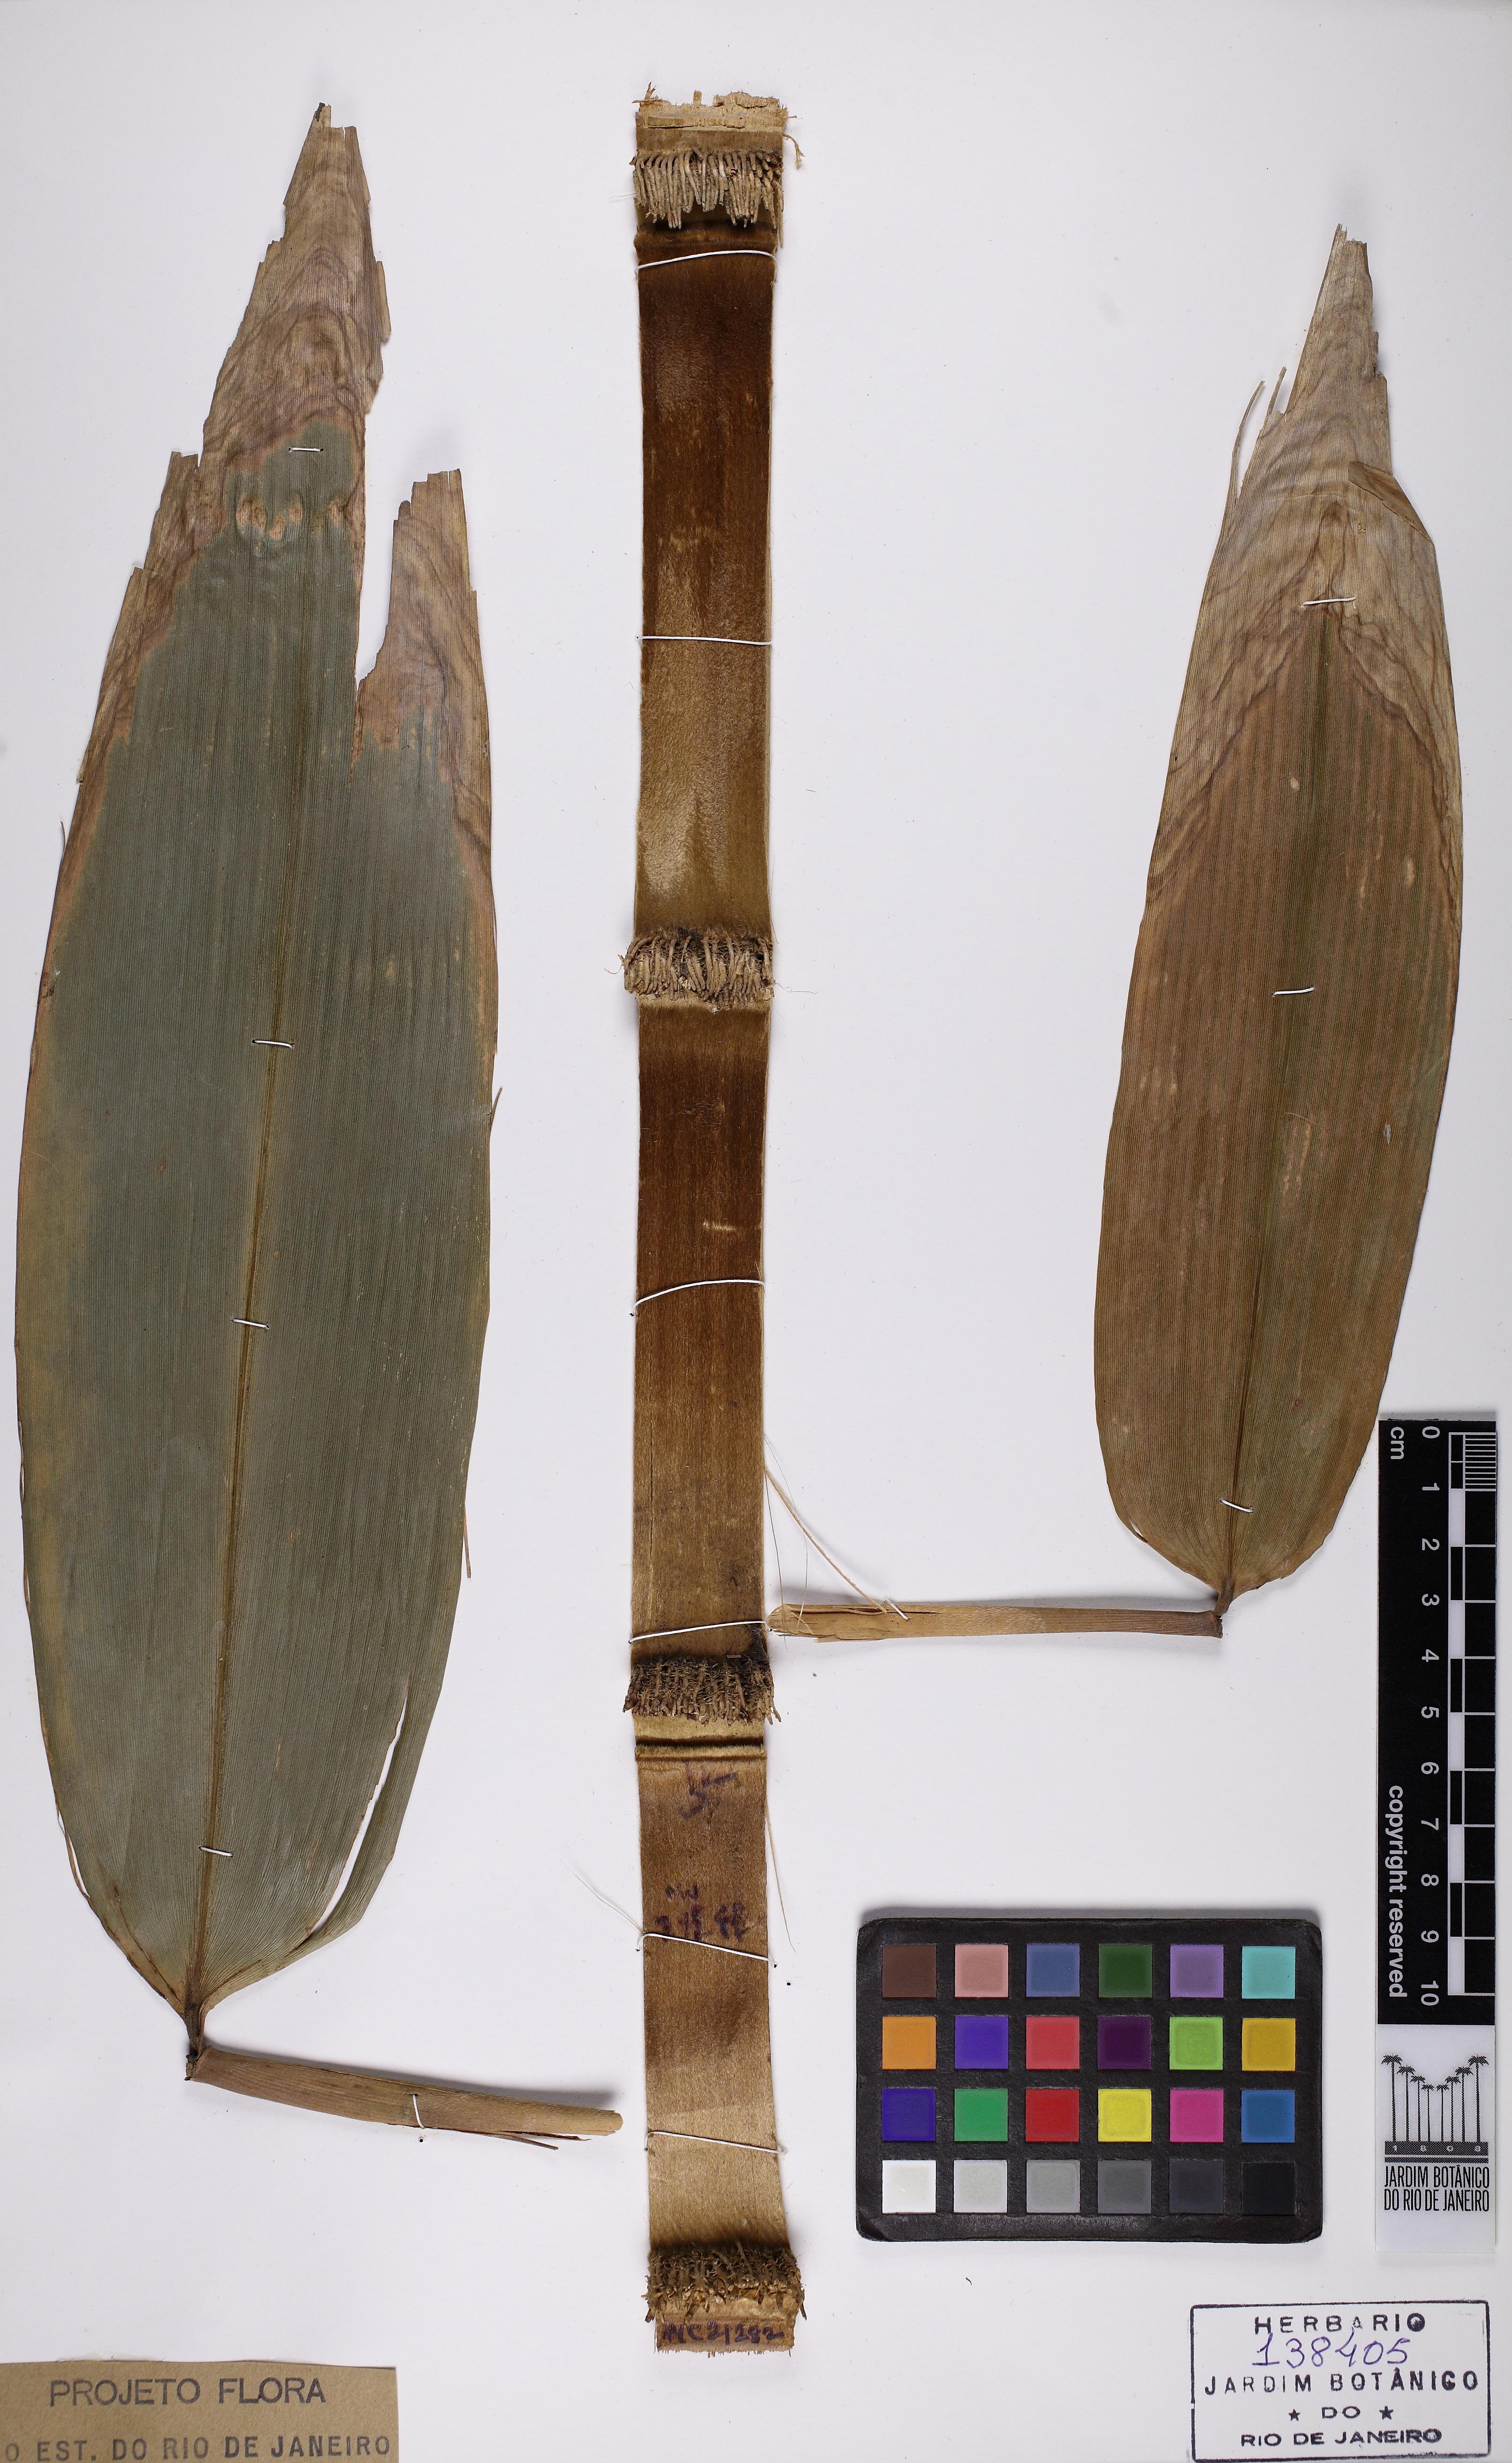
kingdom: Plantae
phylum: Tracheophyta
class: Liliopsida
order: Poales
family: Poaceae
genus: Dendrocalamus
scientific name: Dendrocalamus giganteus
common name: Giant bamboo
